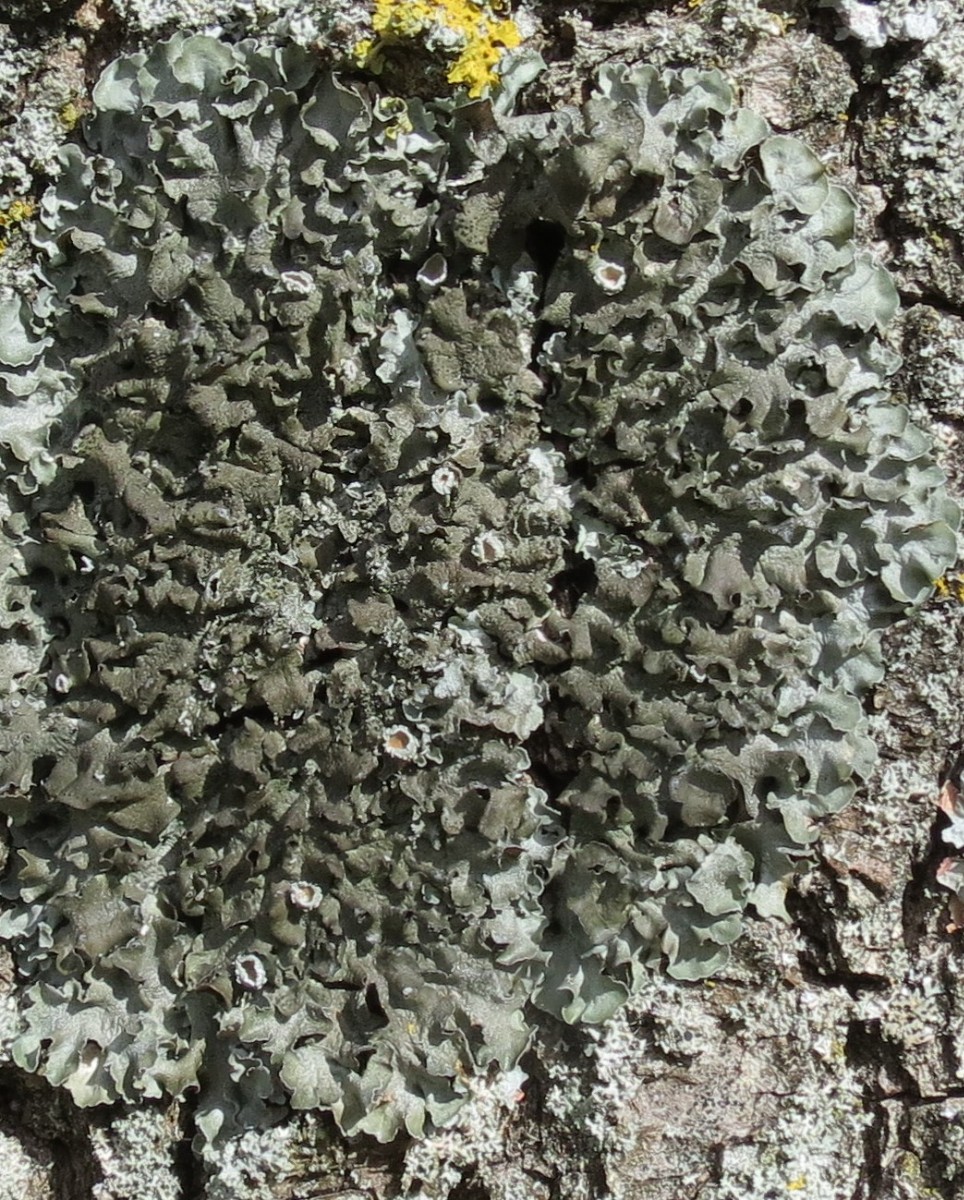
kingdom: Fungi
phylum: Ascomycota
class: Lecanoromycetes
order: Lecanorales
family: Parmeliaceae
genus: Pleurosticta
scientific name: Pleurosticta acetabulum
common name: stor skållav
